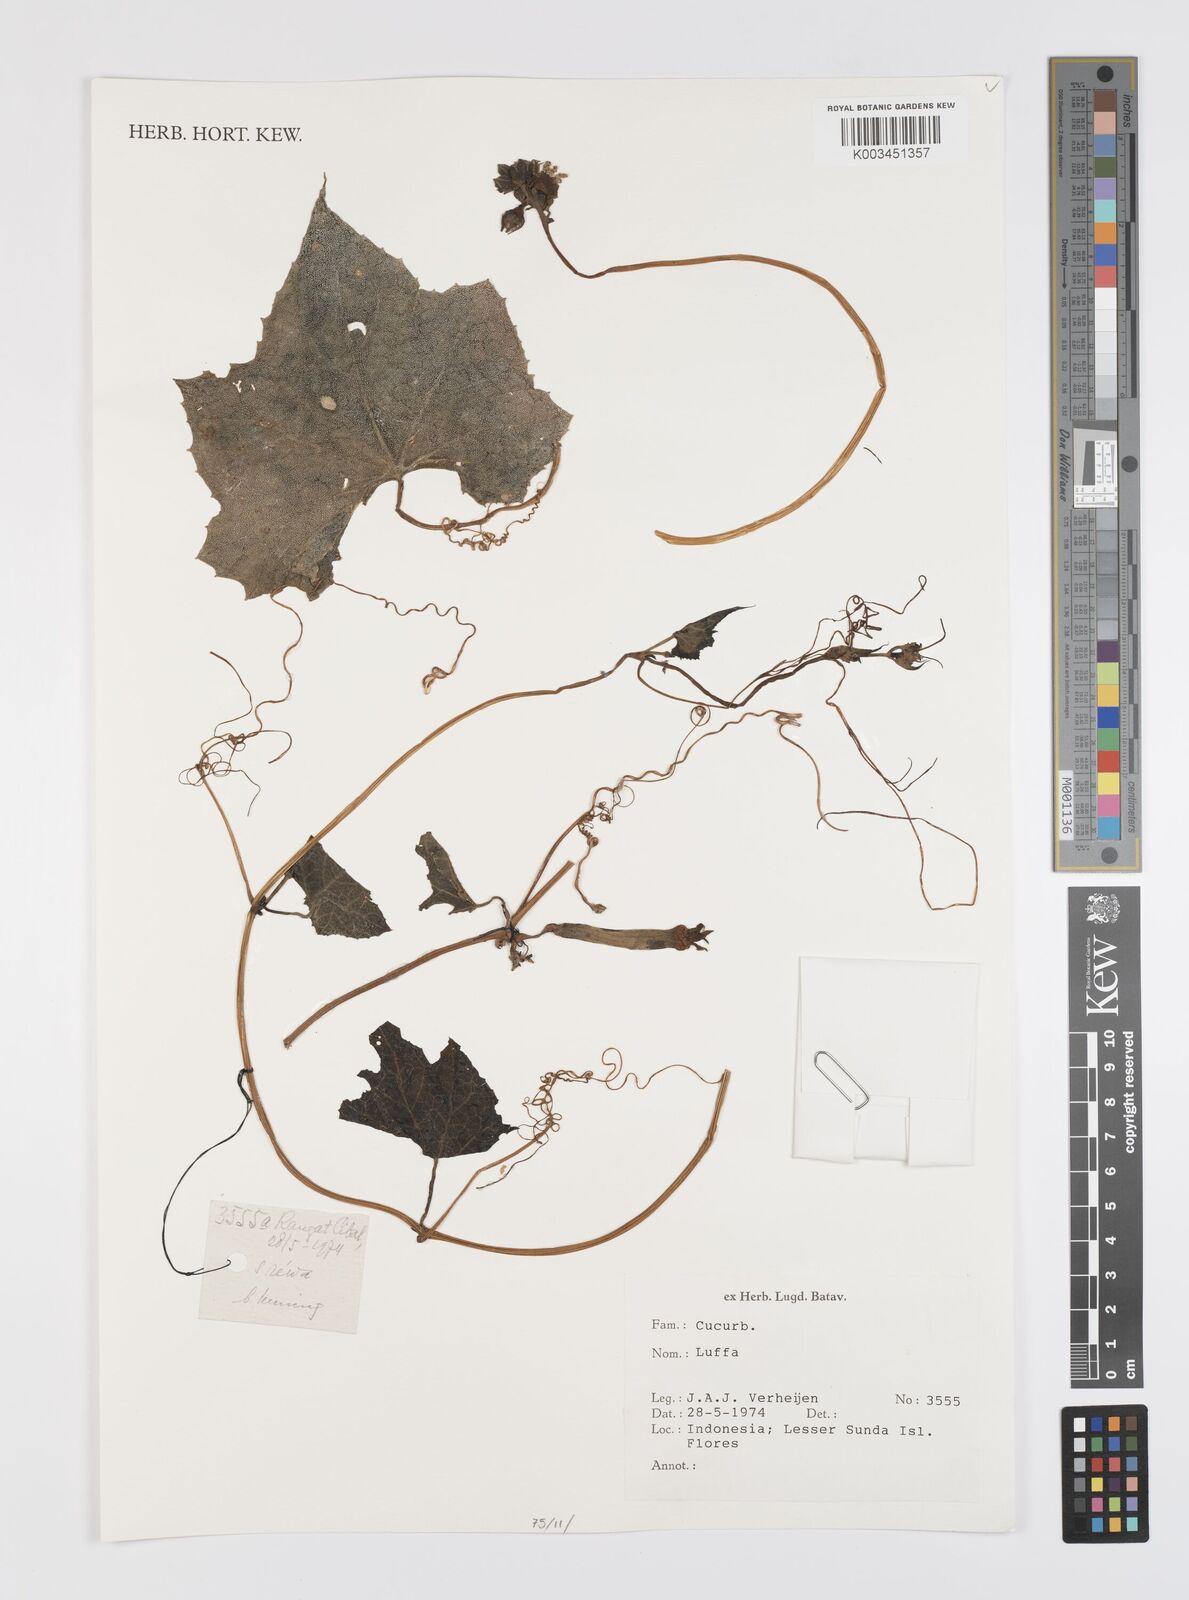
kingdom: Plantae
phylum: Tracheophyta
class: Magnoliopsida
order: Cucurbitales
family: Cucurbitaceae
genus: Luffa
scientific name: Luffa
